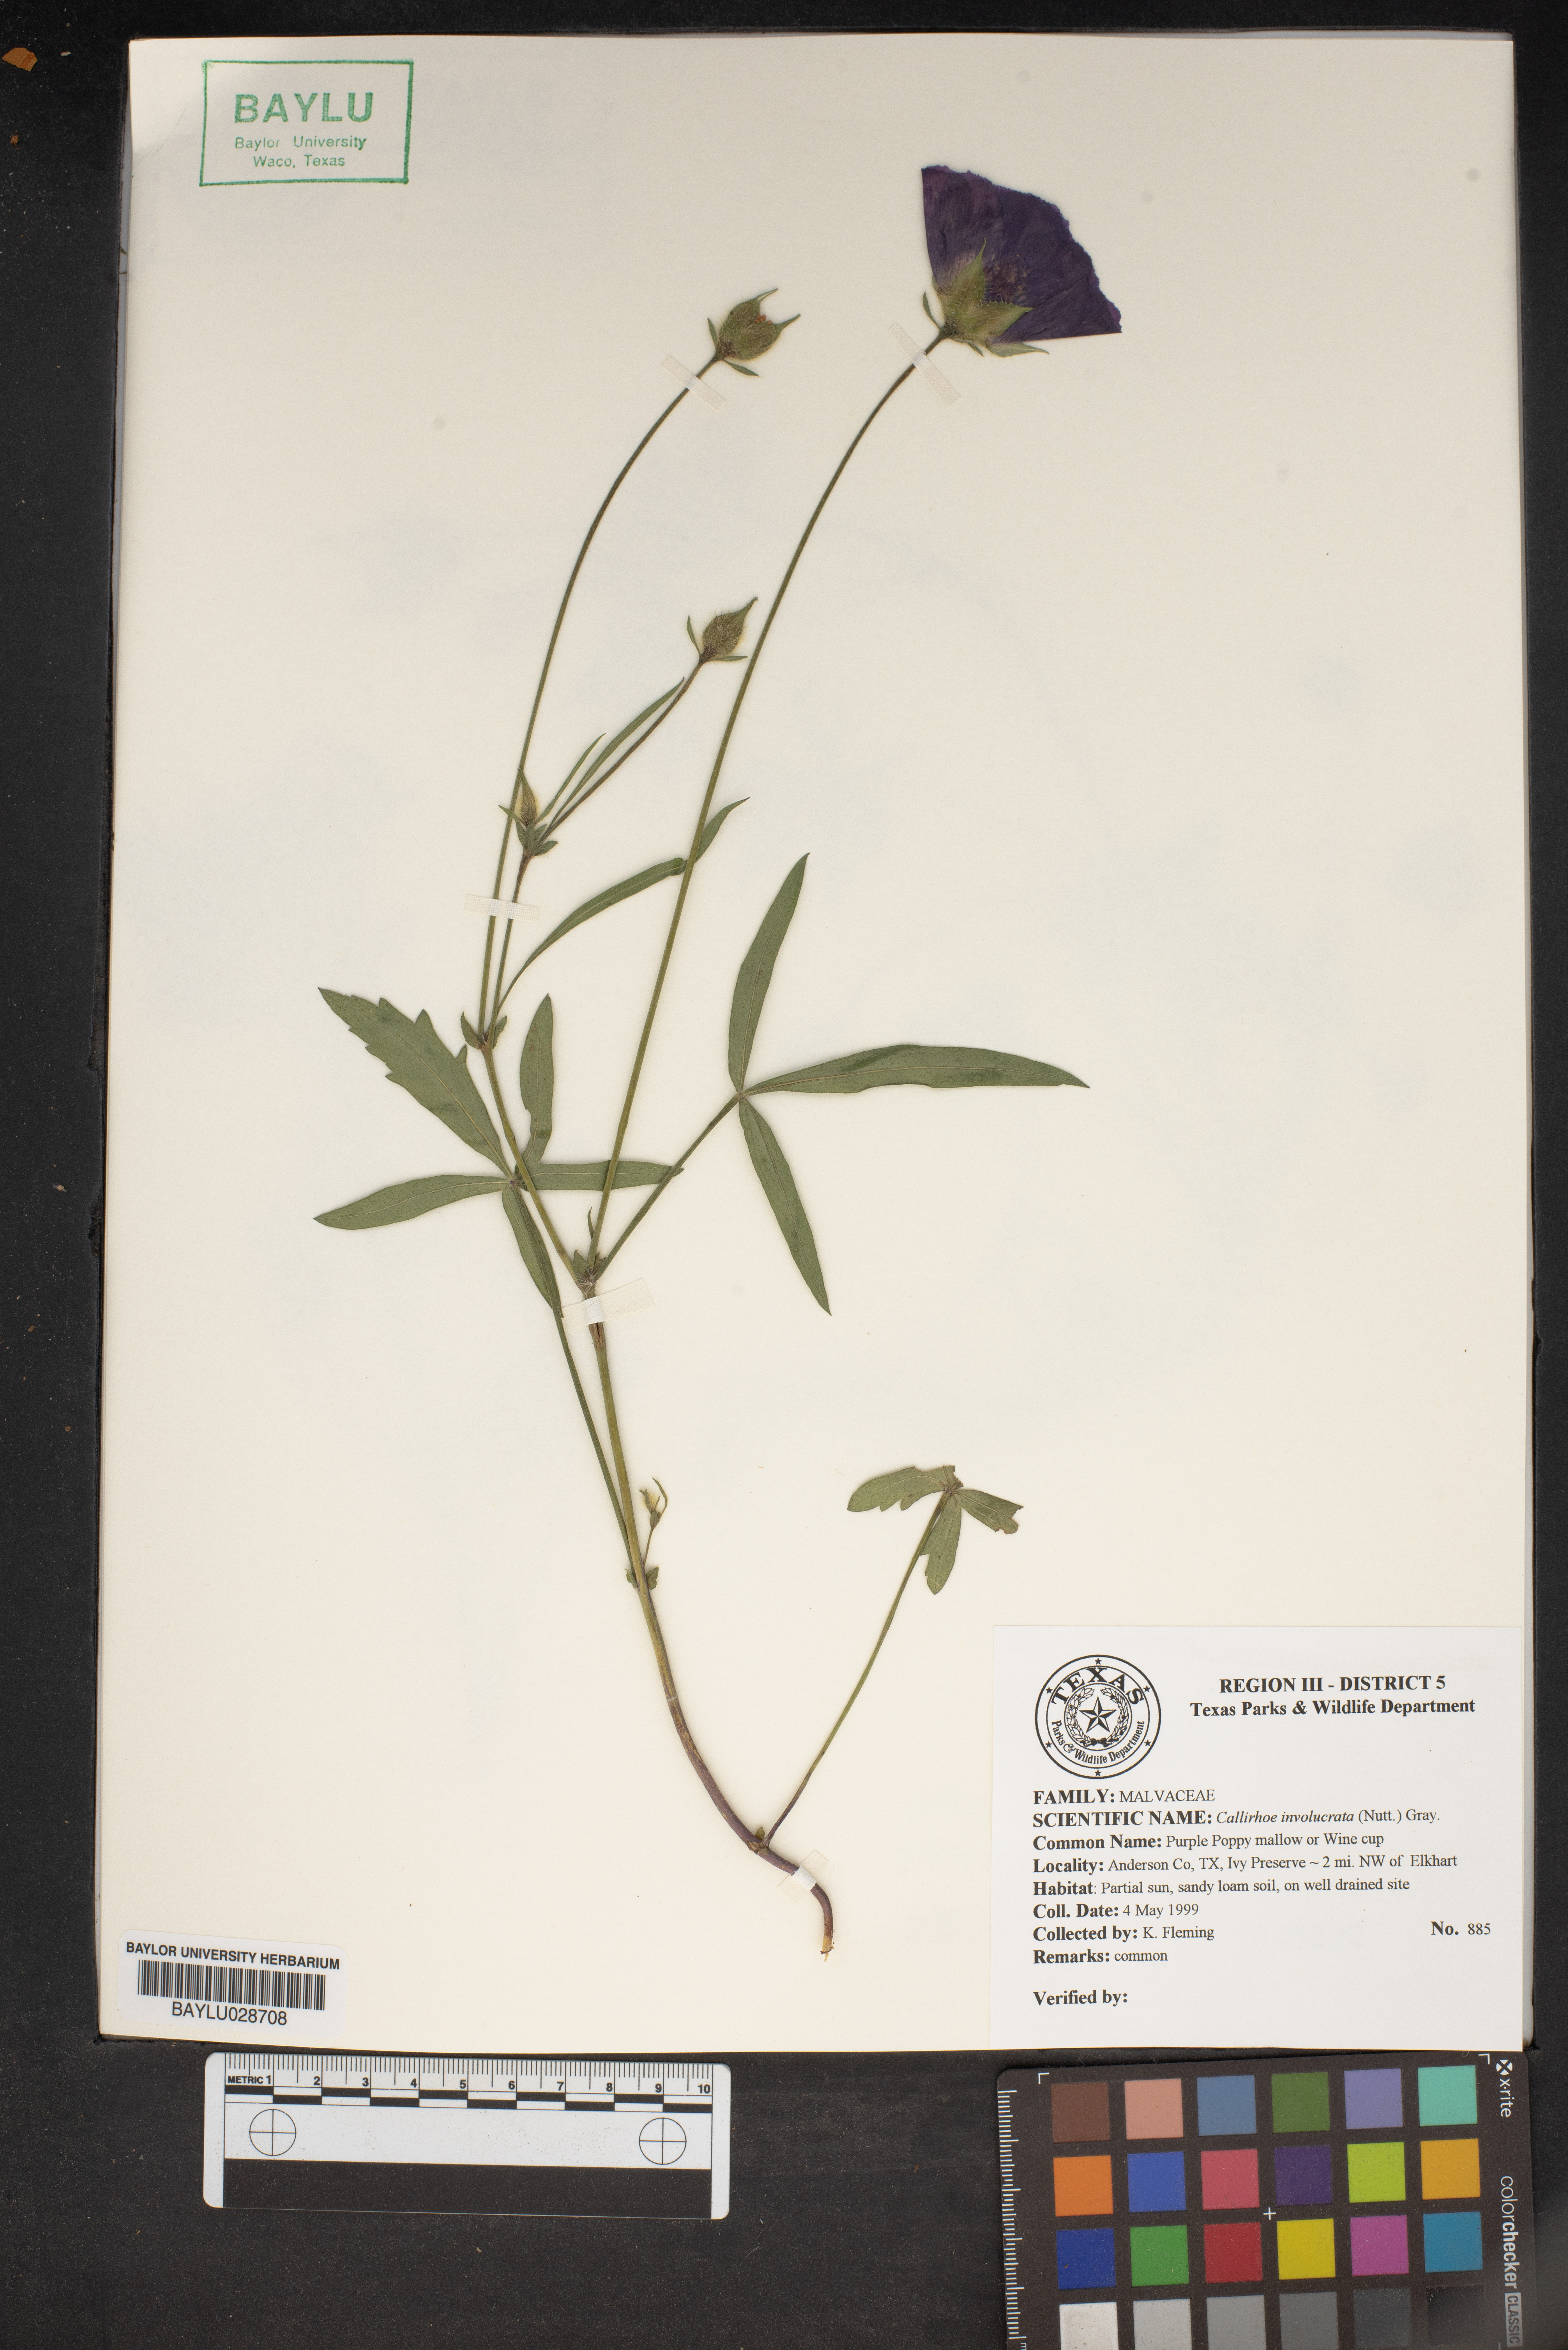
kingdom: Plantae
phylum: Tracheophyta
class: Magnoliopsida
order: Malvales
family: Malvaceae
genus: Callirhoe
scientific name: Callirhoe involucrata
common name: Purple poppy-mallow
